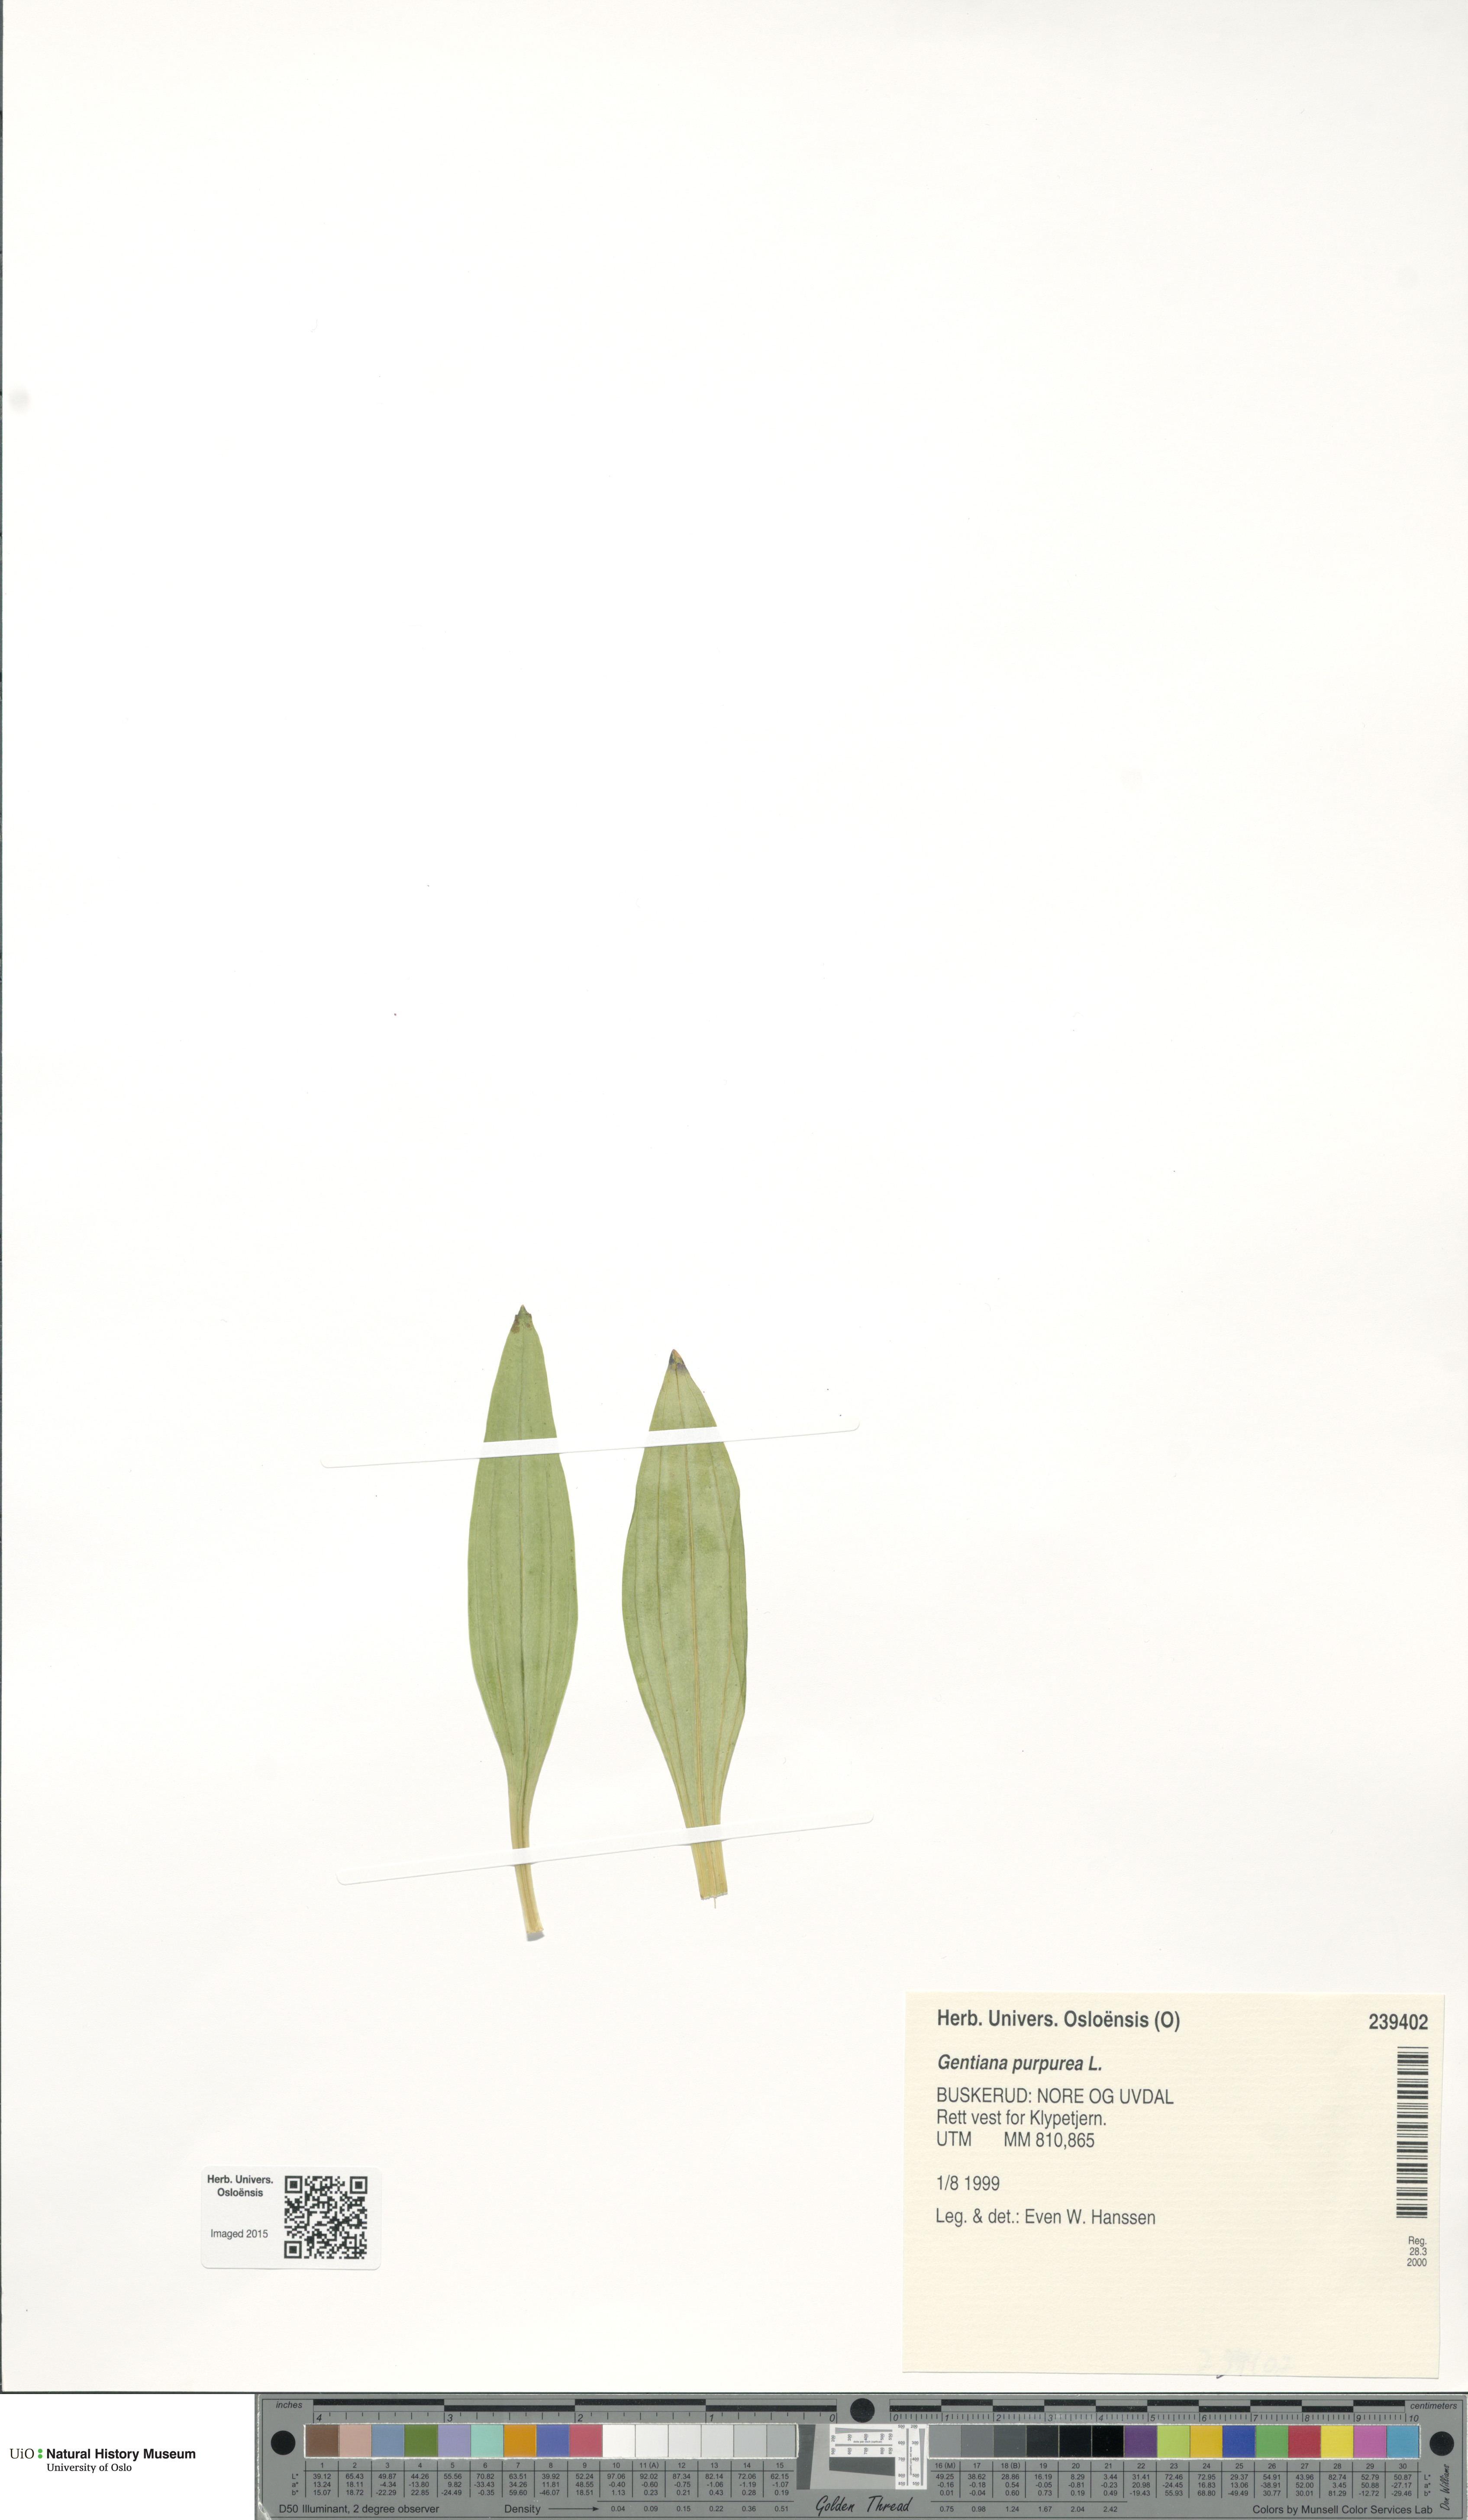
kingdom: Plantae
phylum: Tracheophyta
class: Magnoliopsida
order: Gentianales
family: Gentianaceae
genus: Gentiana
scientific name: Gentiana purpurea
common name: Purple gentian
